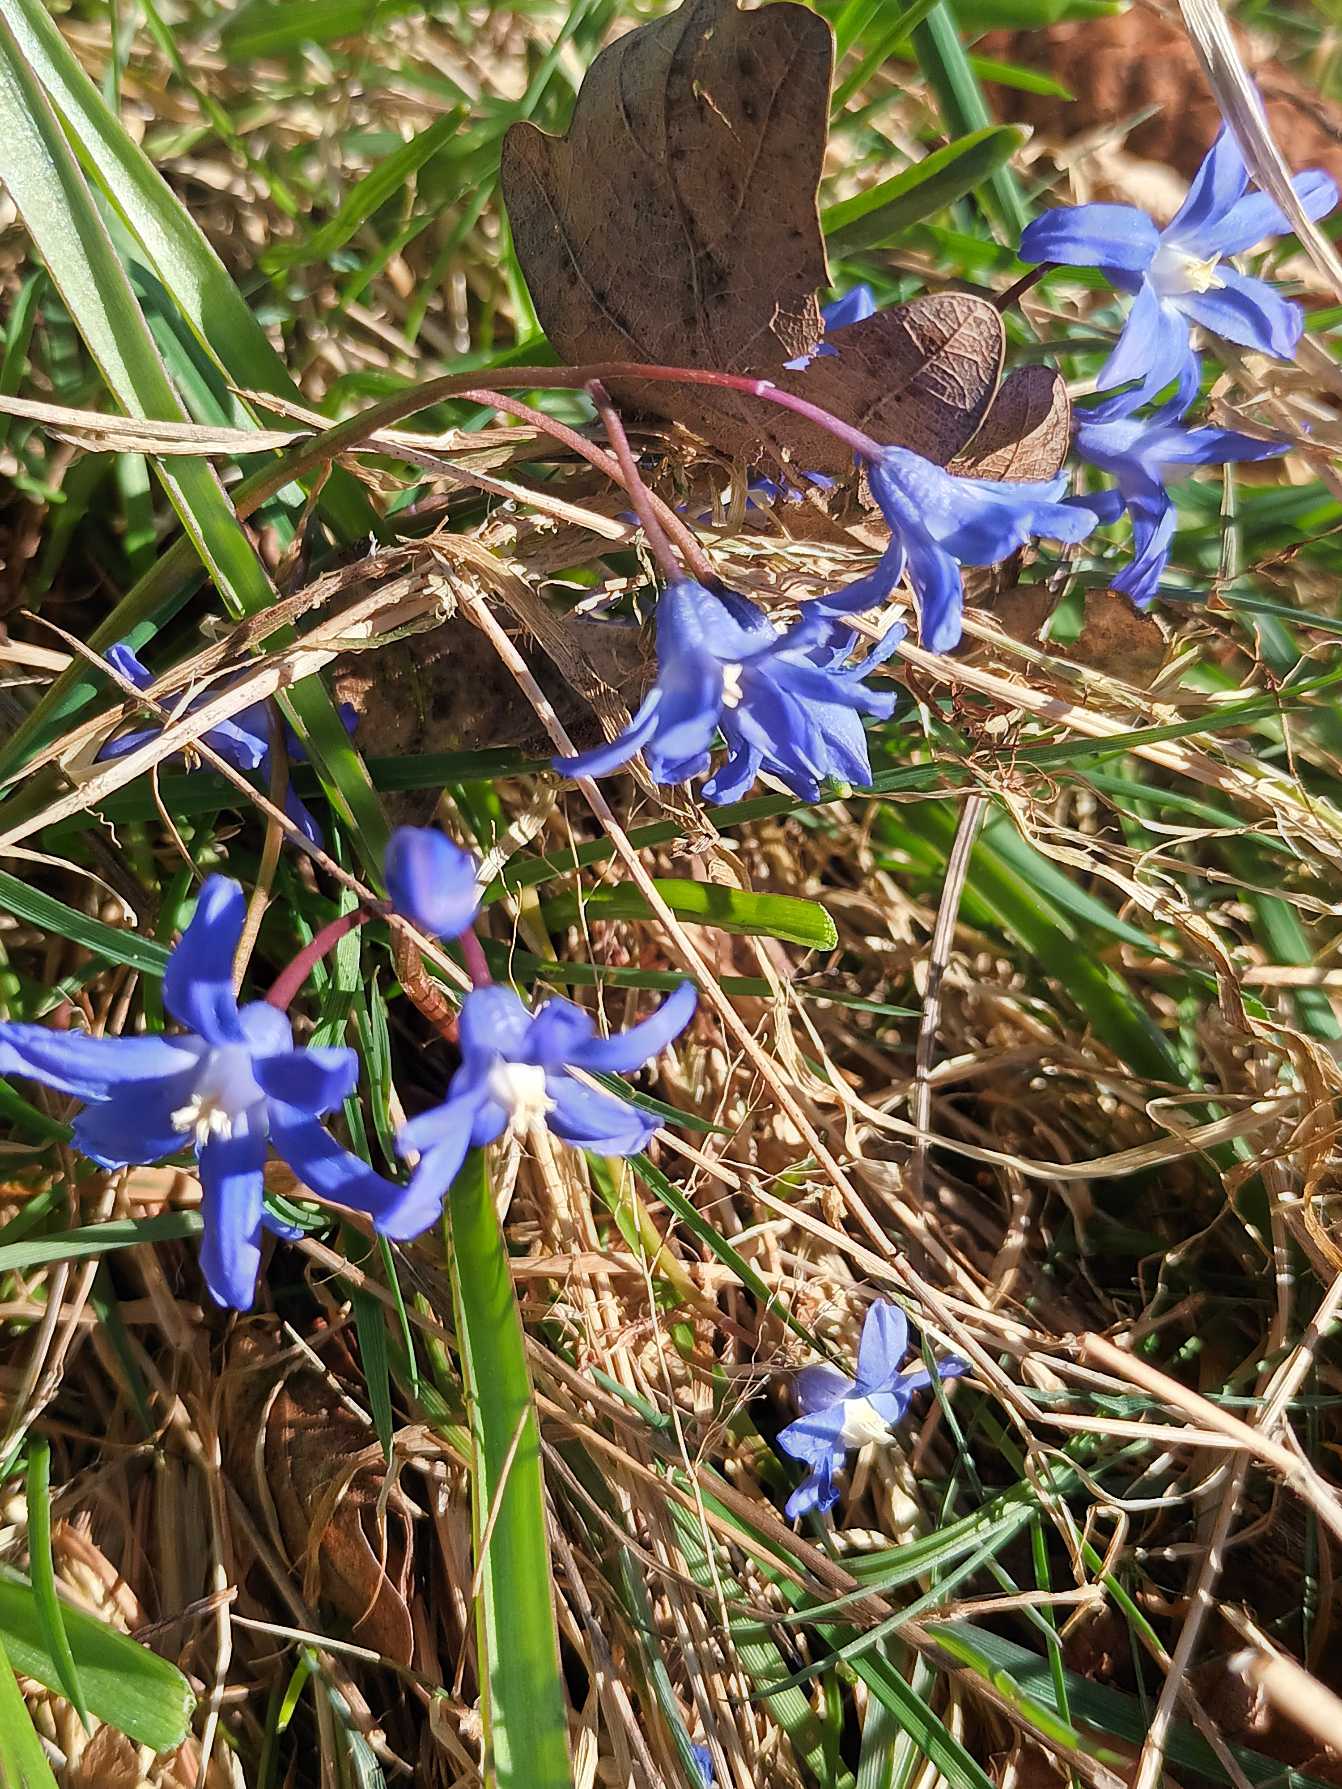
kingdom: Plantae
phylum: Tracheophyta
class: Liliopsida
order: Asparagales
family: Asparagaceae
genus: Scilla
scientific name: Scilla sardensis
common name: Liden snepryd
